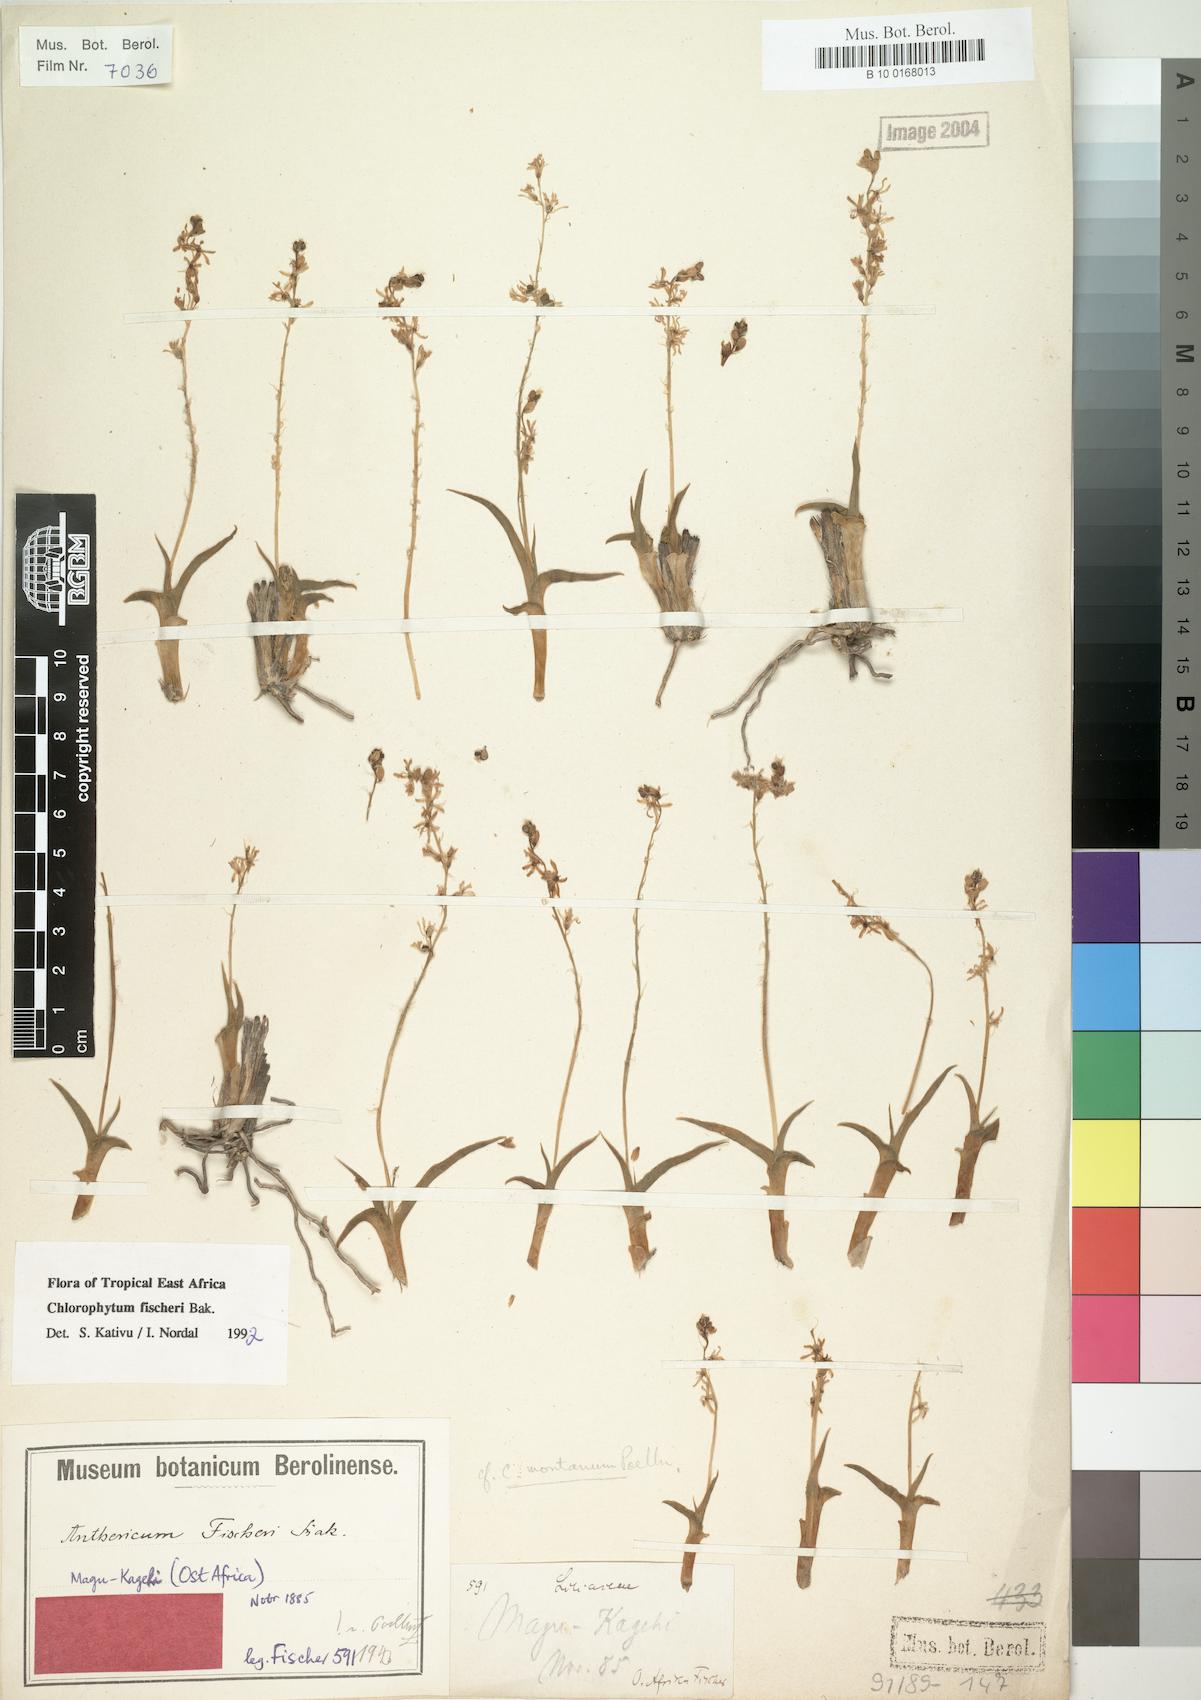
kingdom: Plantae
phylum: Tracheophyta
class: Liliopsida
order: Asparagales
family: Asparagaceae
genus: Chlorophytum
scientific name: Chlorophytum fischeri
